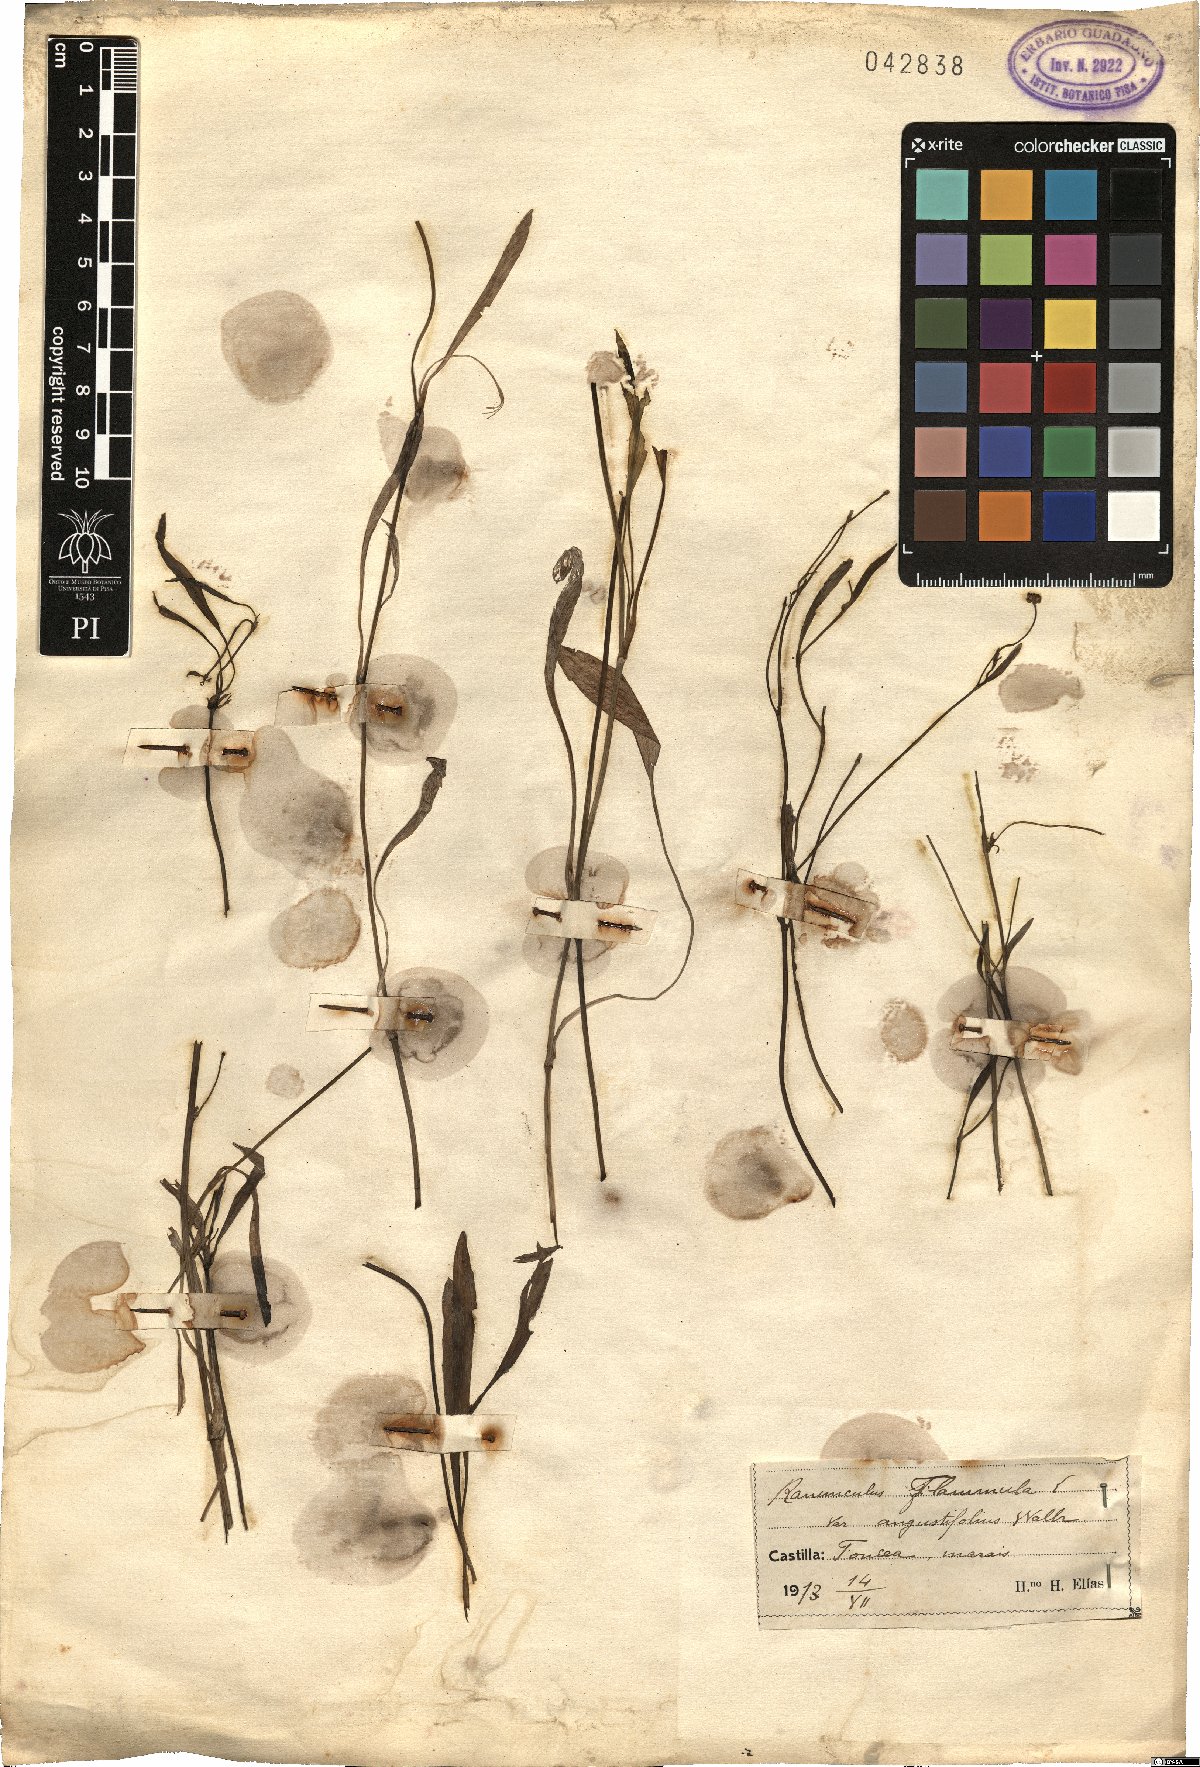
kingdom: Plantae
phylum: Tracheophyta
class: Magnoliopsida
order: Ranunculales
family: Ranunculaceae
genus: Ranunculus
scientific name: Ranunculus flammula
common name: Lesser spearwort
